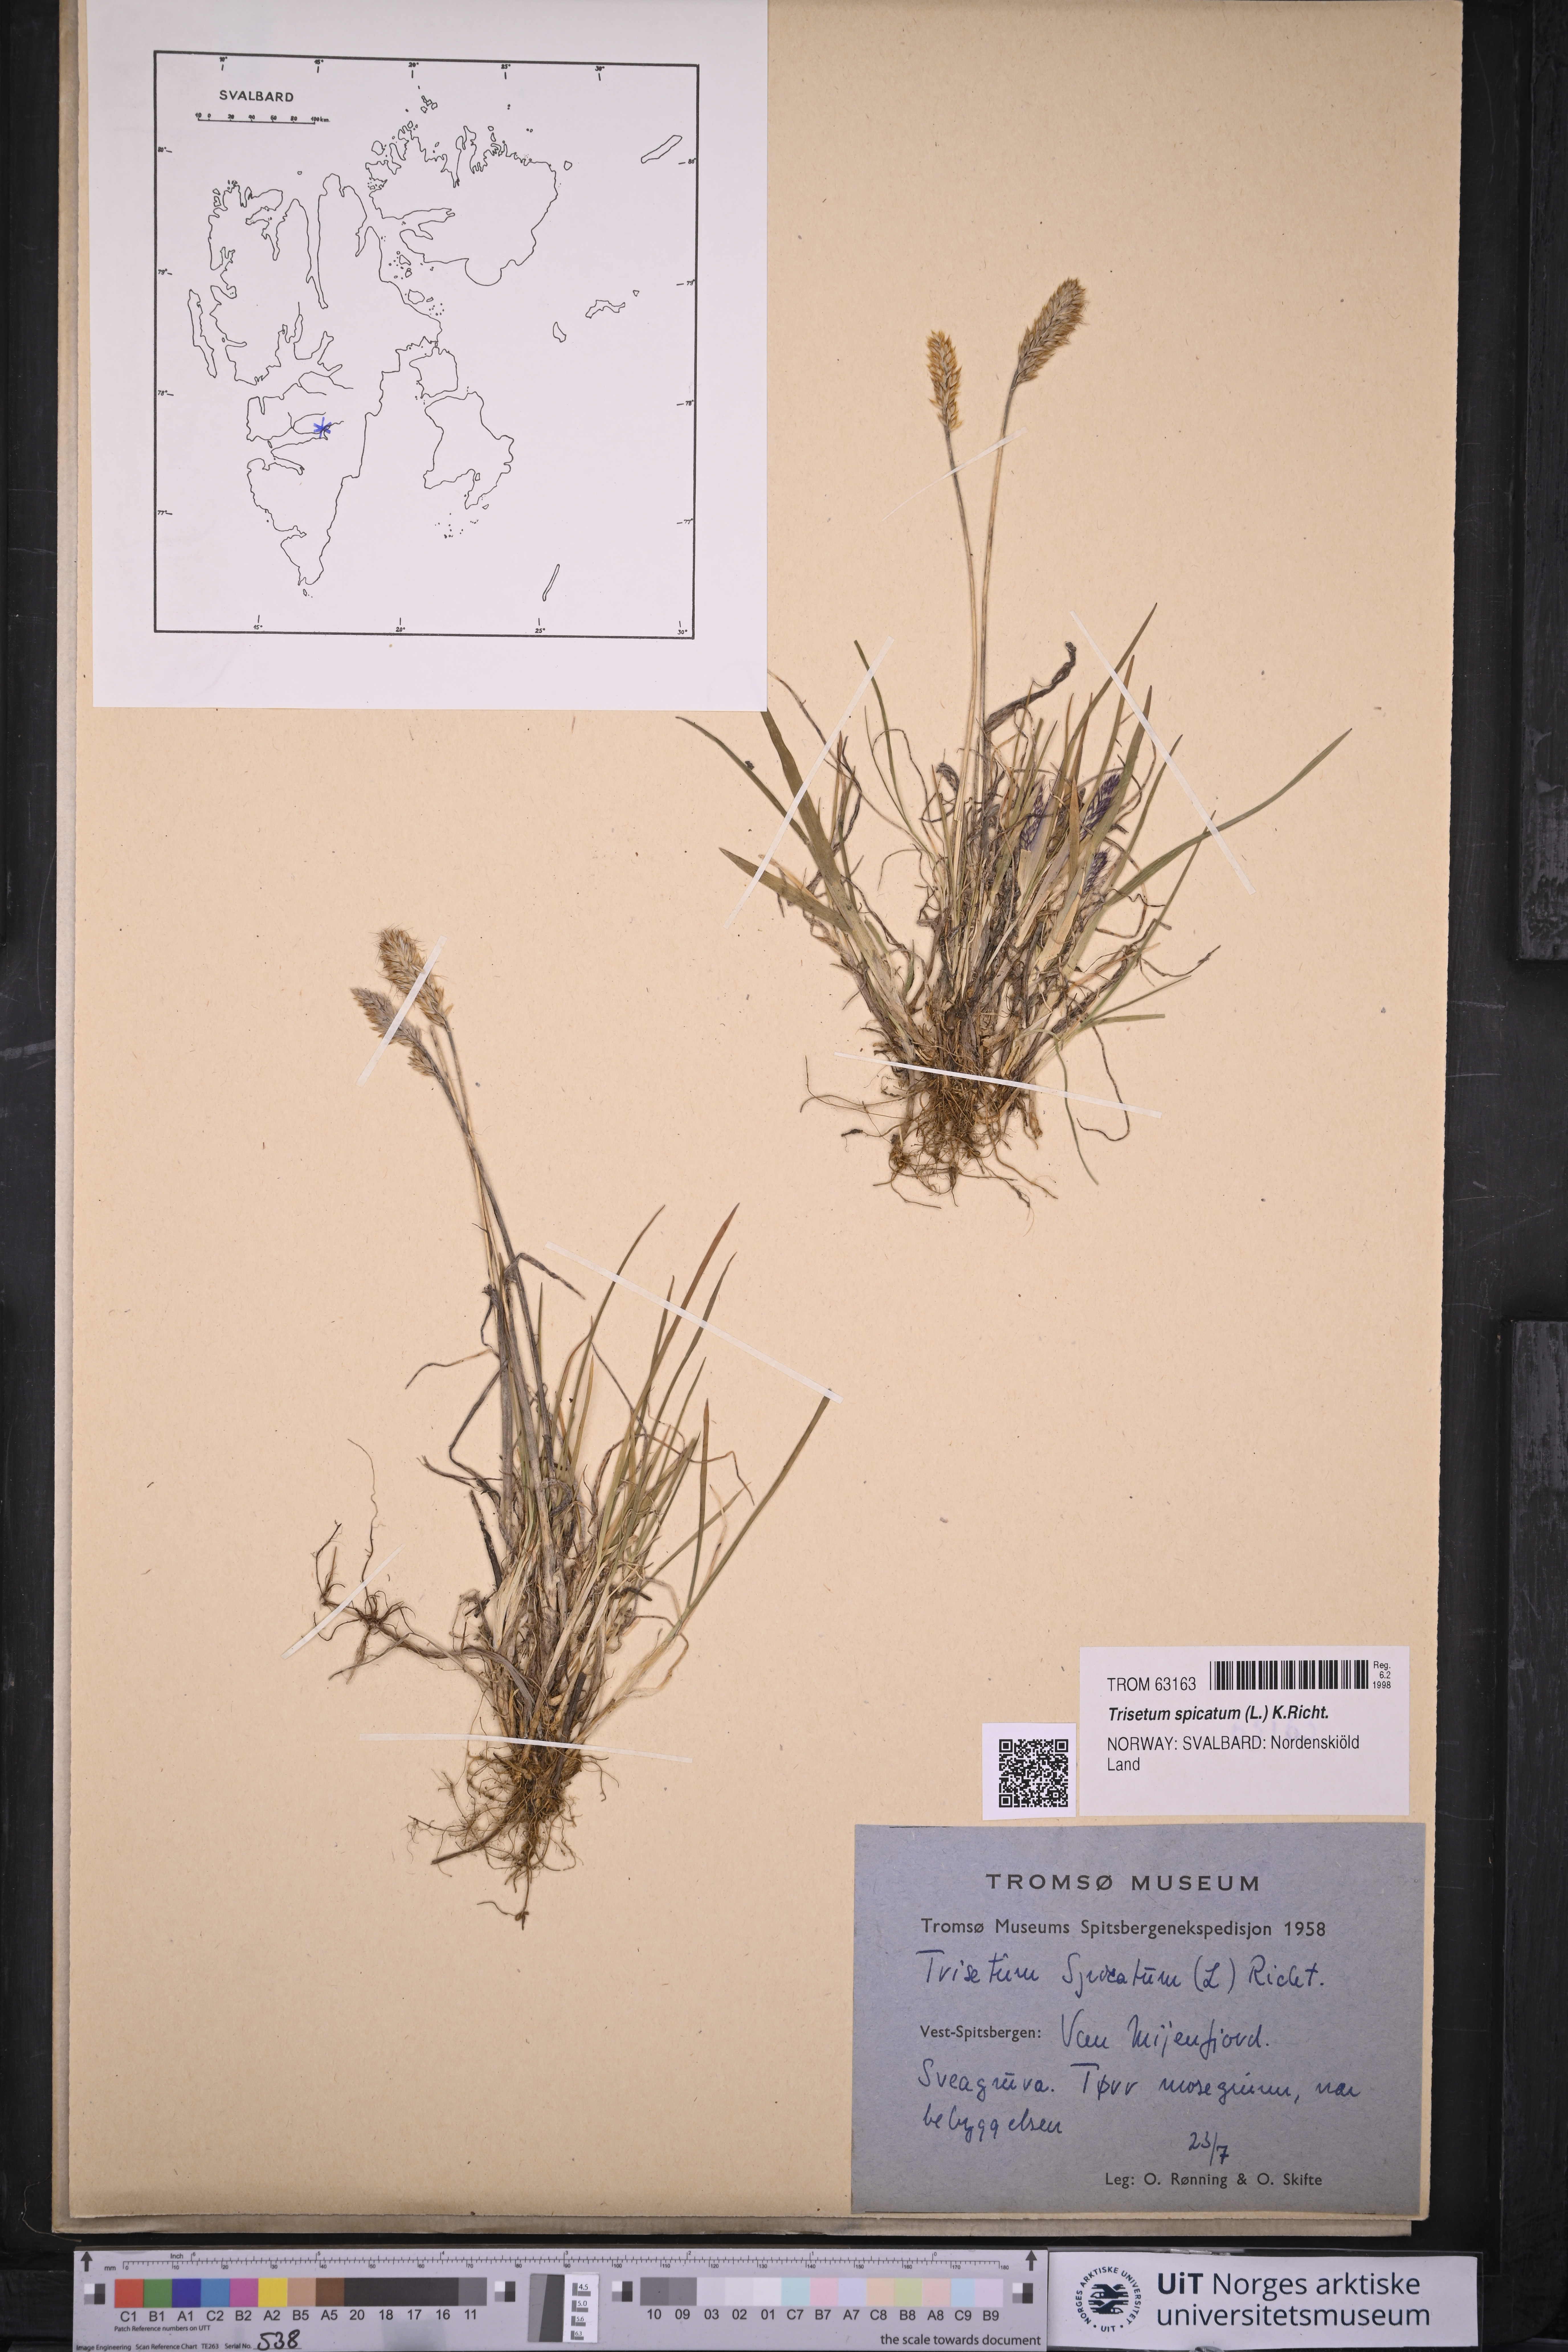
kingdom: Plantae
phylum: Tracheophyta
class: Liliopsida
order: Poales
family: Poaceae
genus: Koeleria
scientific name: Koeleria spicata
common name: Mountain trisetum
